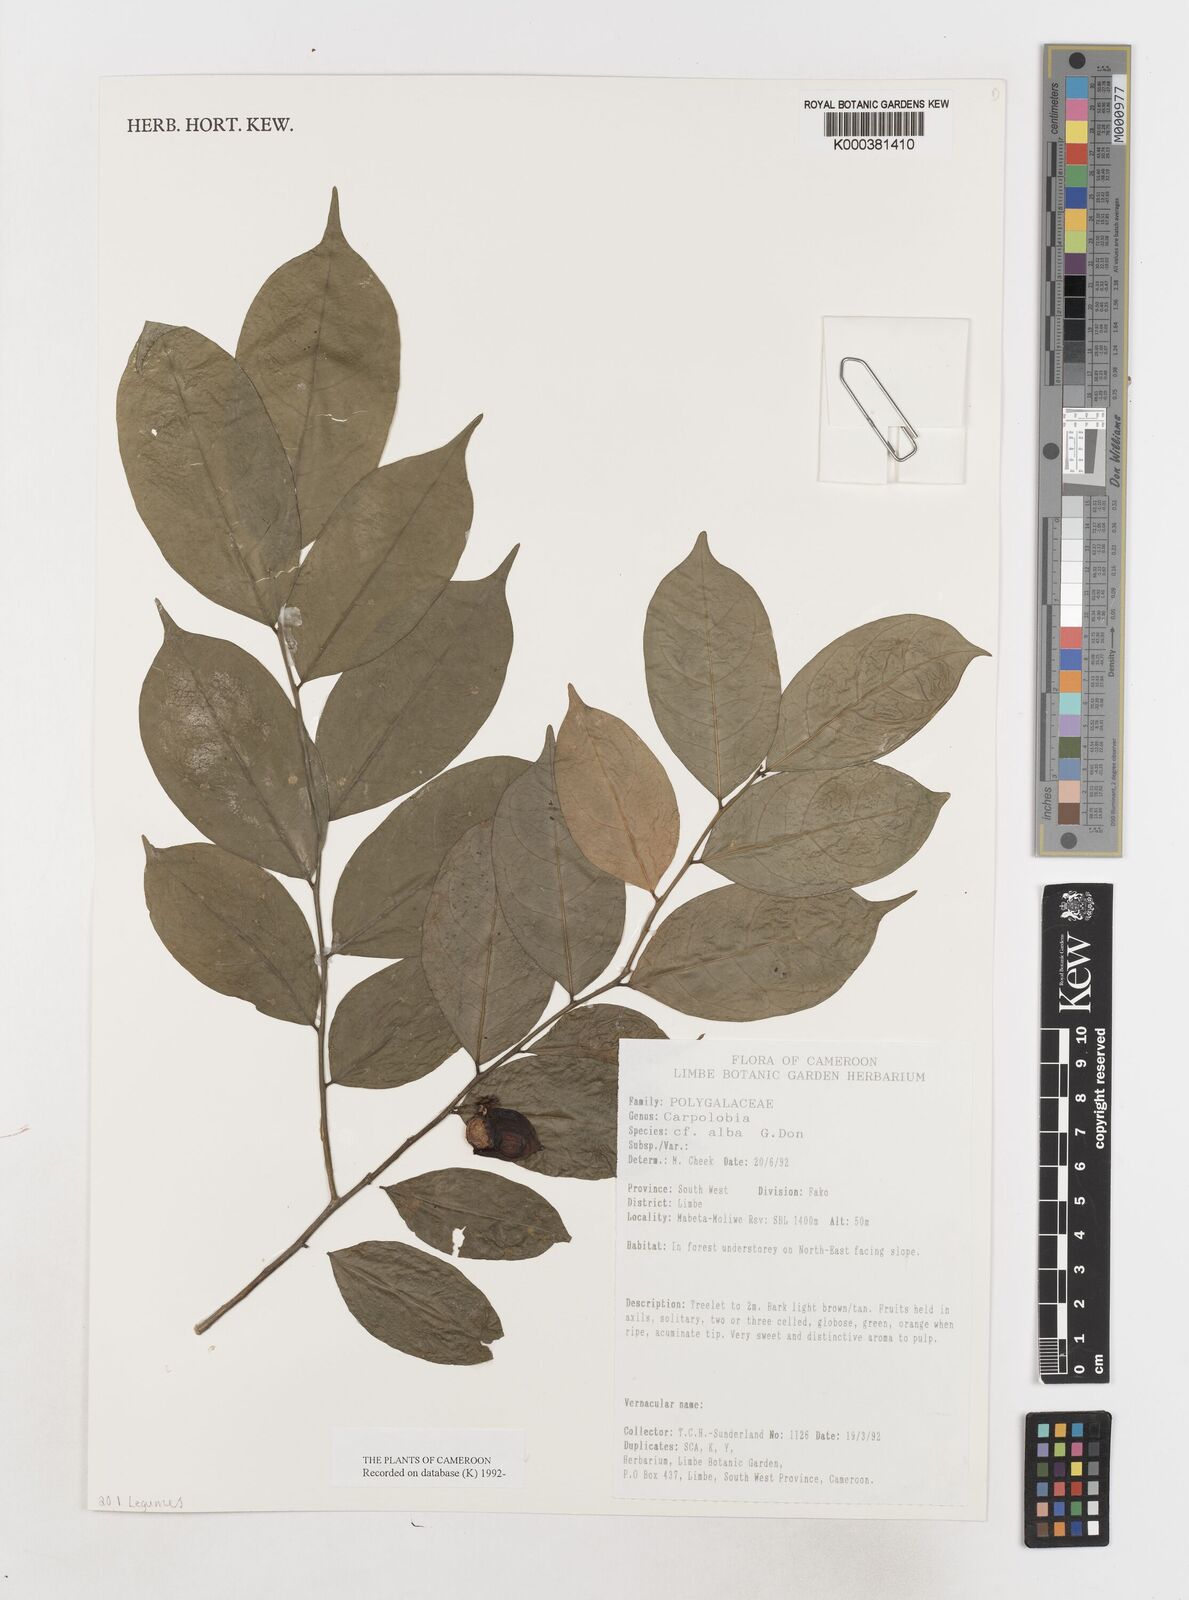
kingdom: Plantae
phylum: Tracheophyta
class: Magnoliopsida
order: Fabales
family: Polygalaceae
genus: Carpolobia
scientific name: Carpolobia alba
